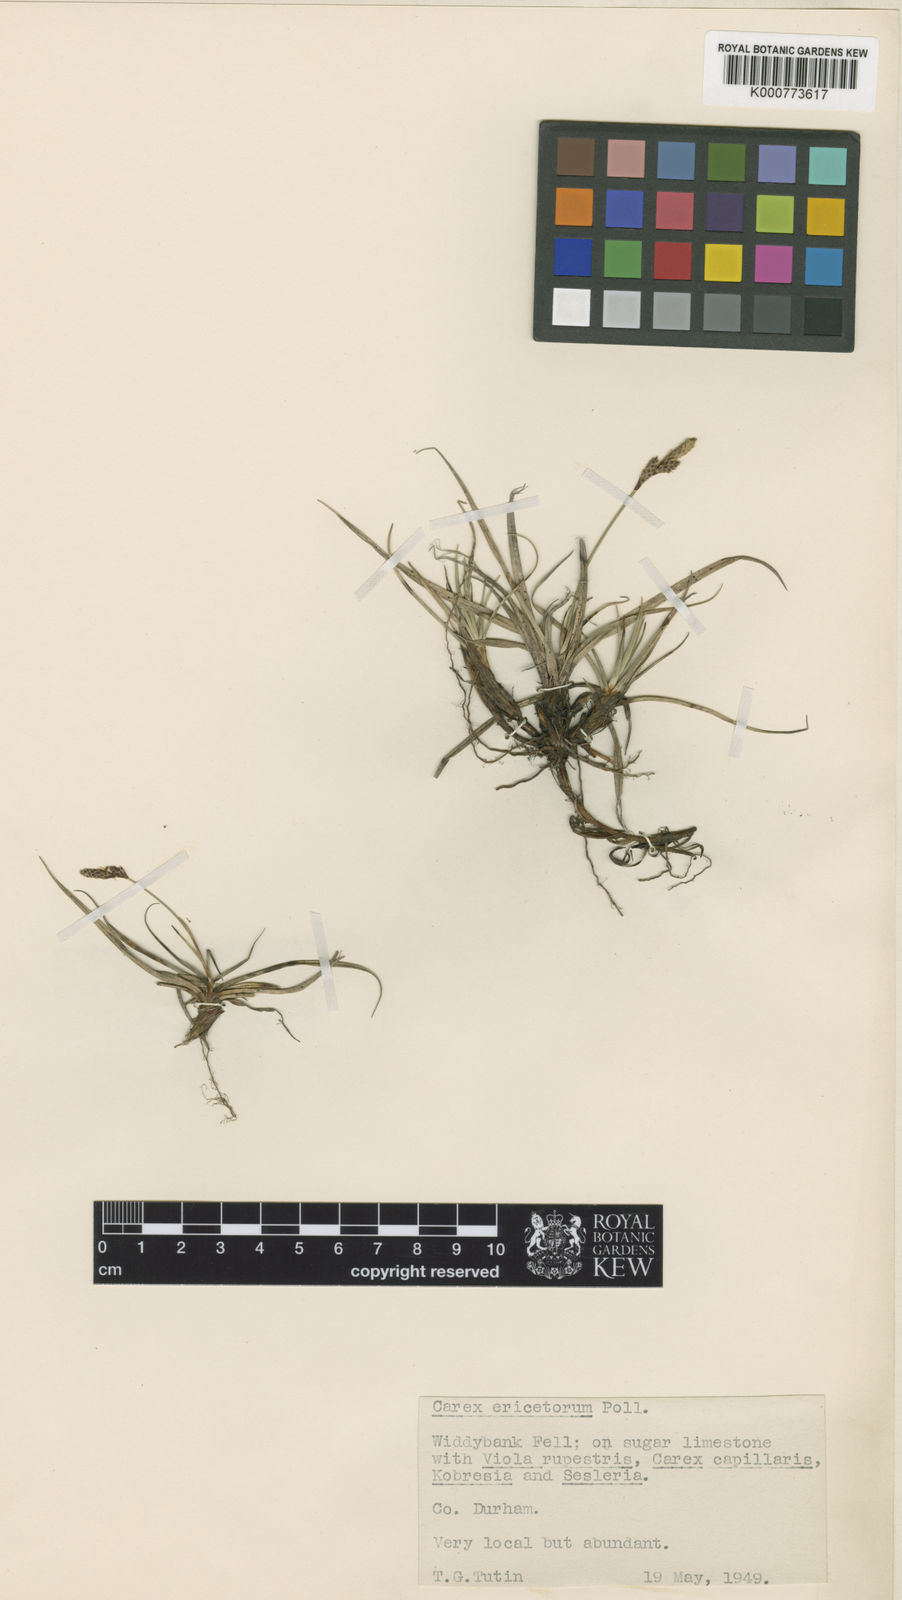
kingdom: Plantae
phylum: Tracheophyta
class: Liliopsida
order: Poales
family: Cyperaceae
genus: Carex
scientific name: Carex ericetorum
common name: Rare spring-sedge
